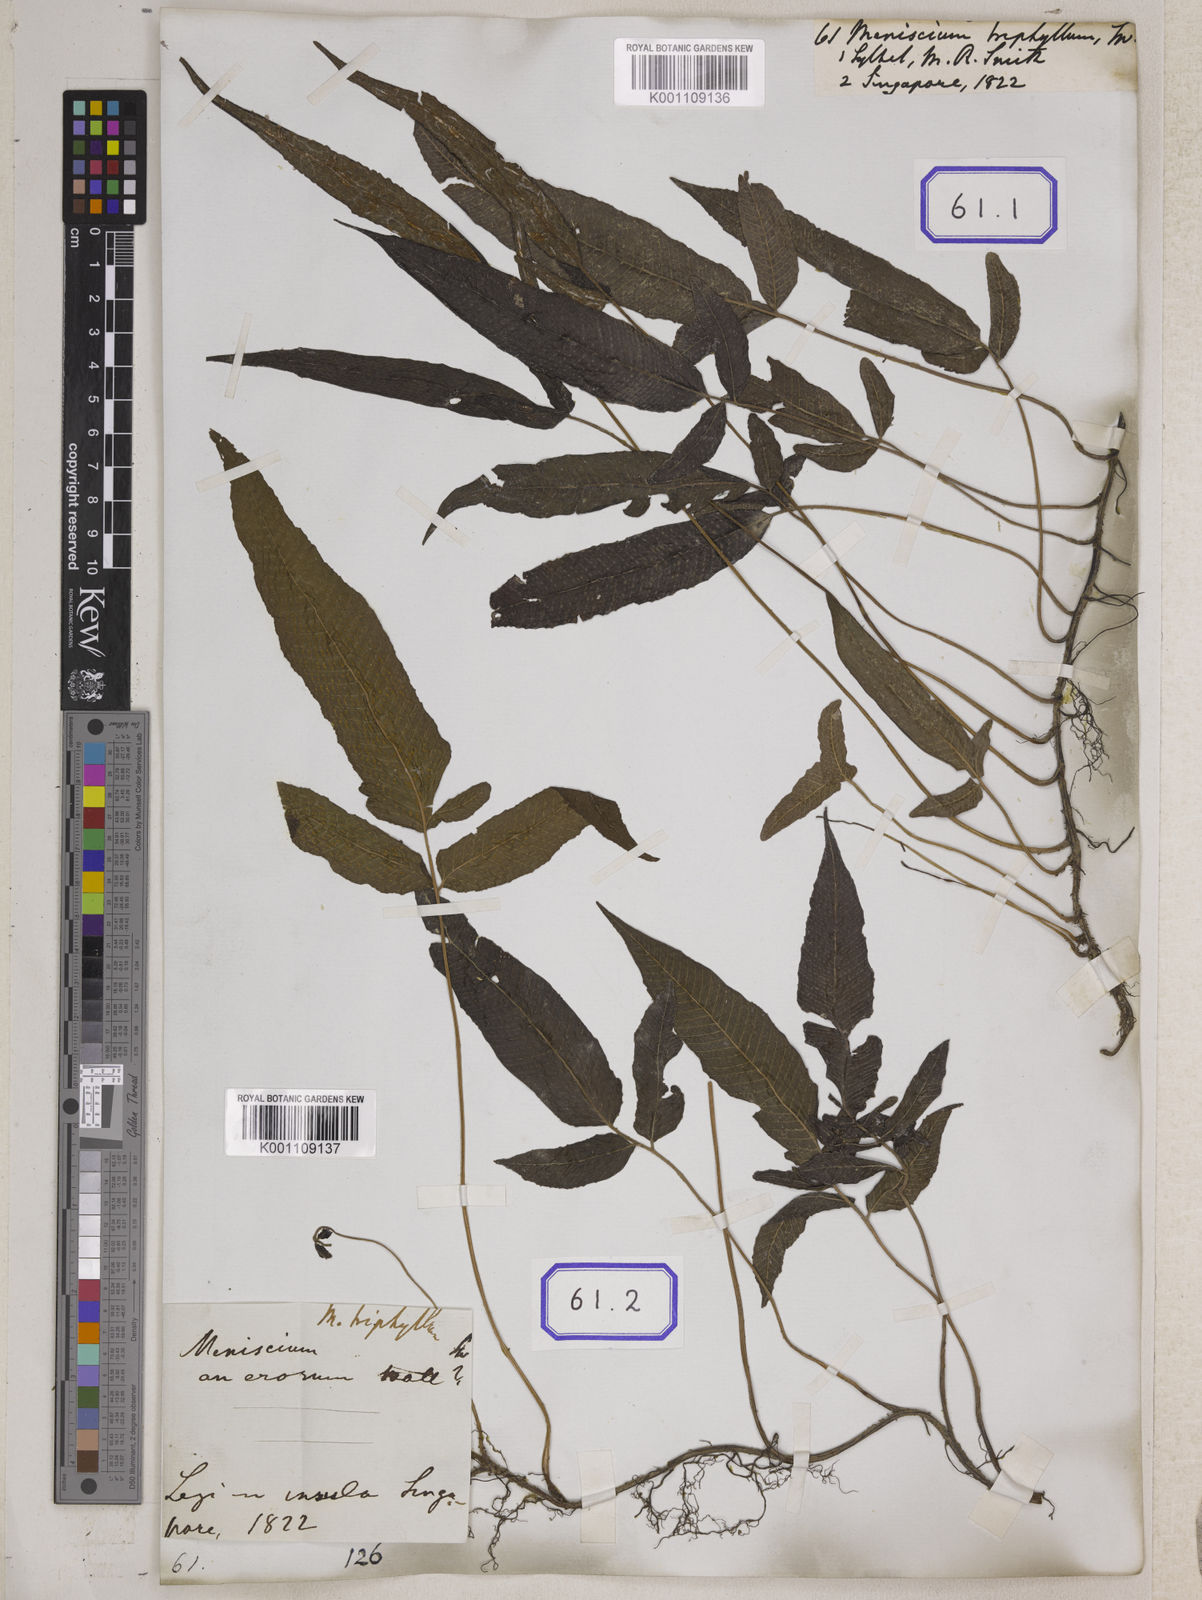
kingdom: Plantae
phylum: Tracheophyta
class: Polypodiopsida
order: Polypodiales
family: Thelypteridaceae
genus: Grypothrix
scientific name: Grypothrix triphylla
